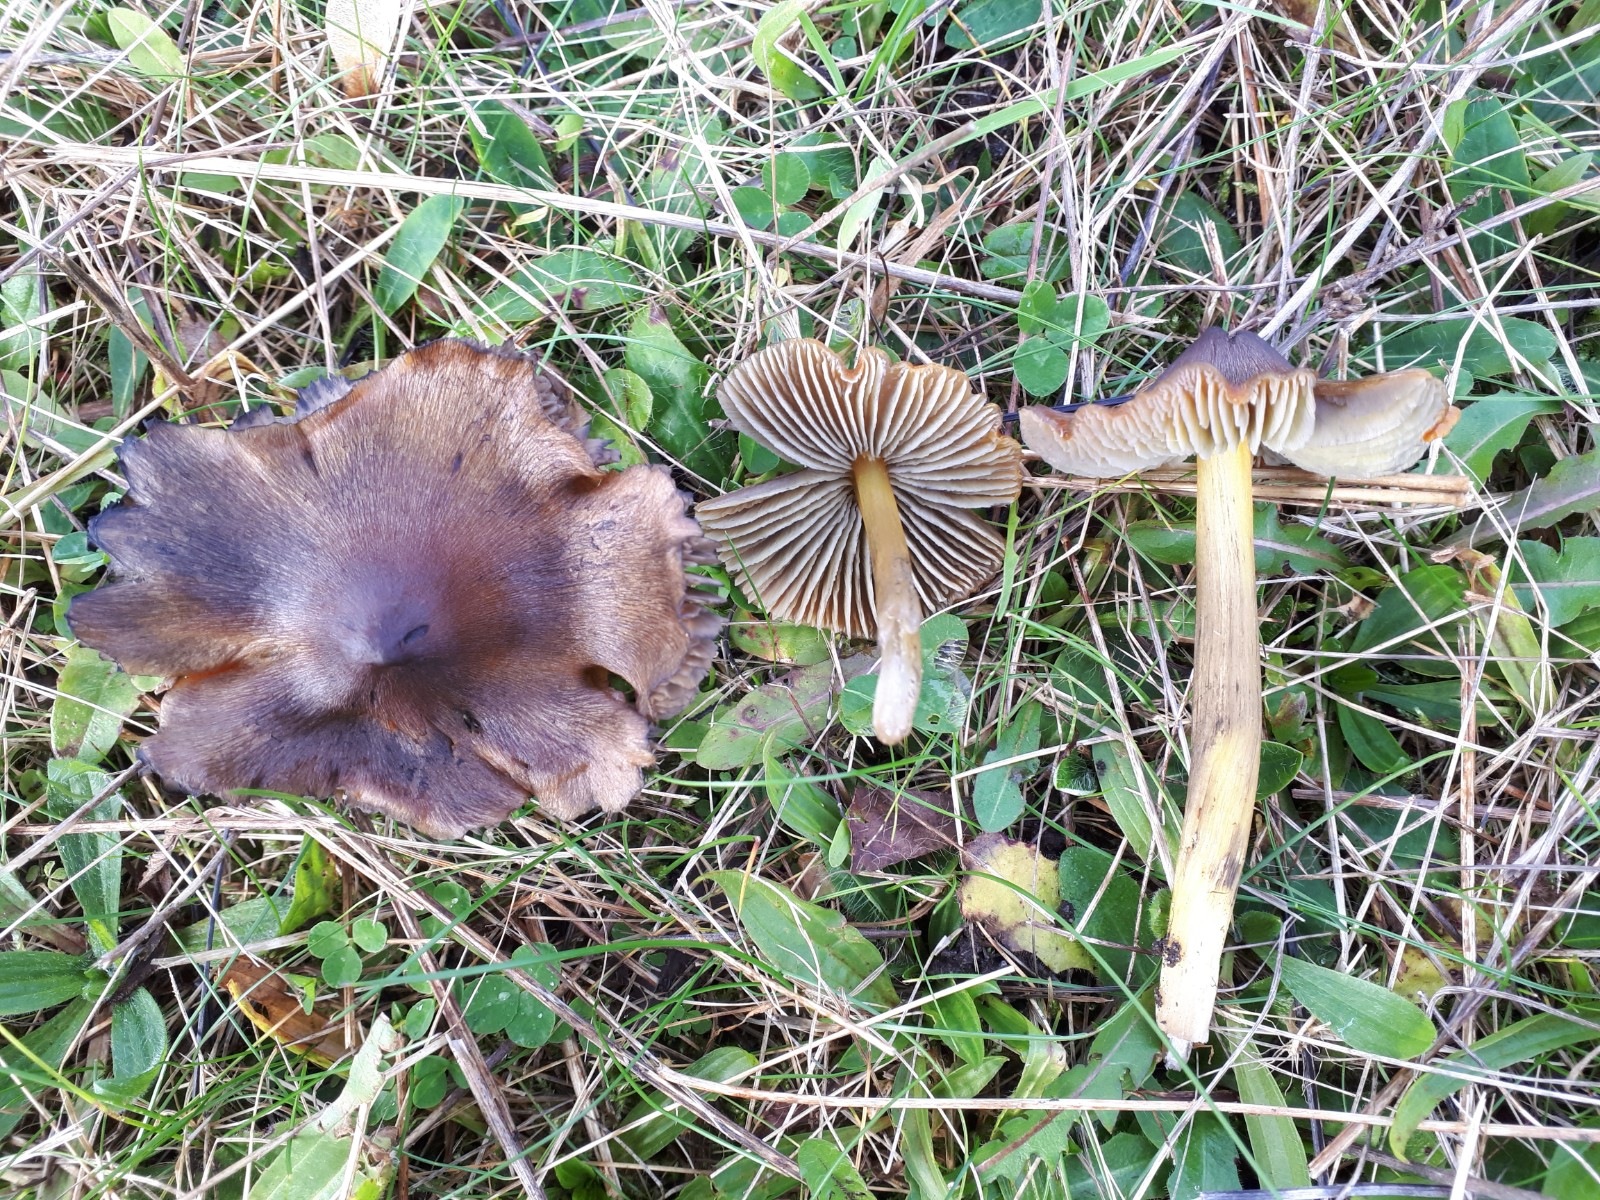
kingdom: Fungi
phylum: Basidiomycota
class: Agaricomycetes
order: Agaricales
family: Hygrophoraceae
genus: Hygrocybe
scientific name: Hygrocybe conica
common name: kegle-vokshat
